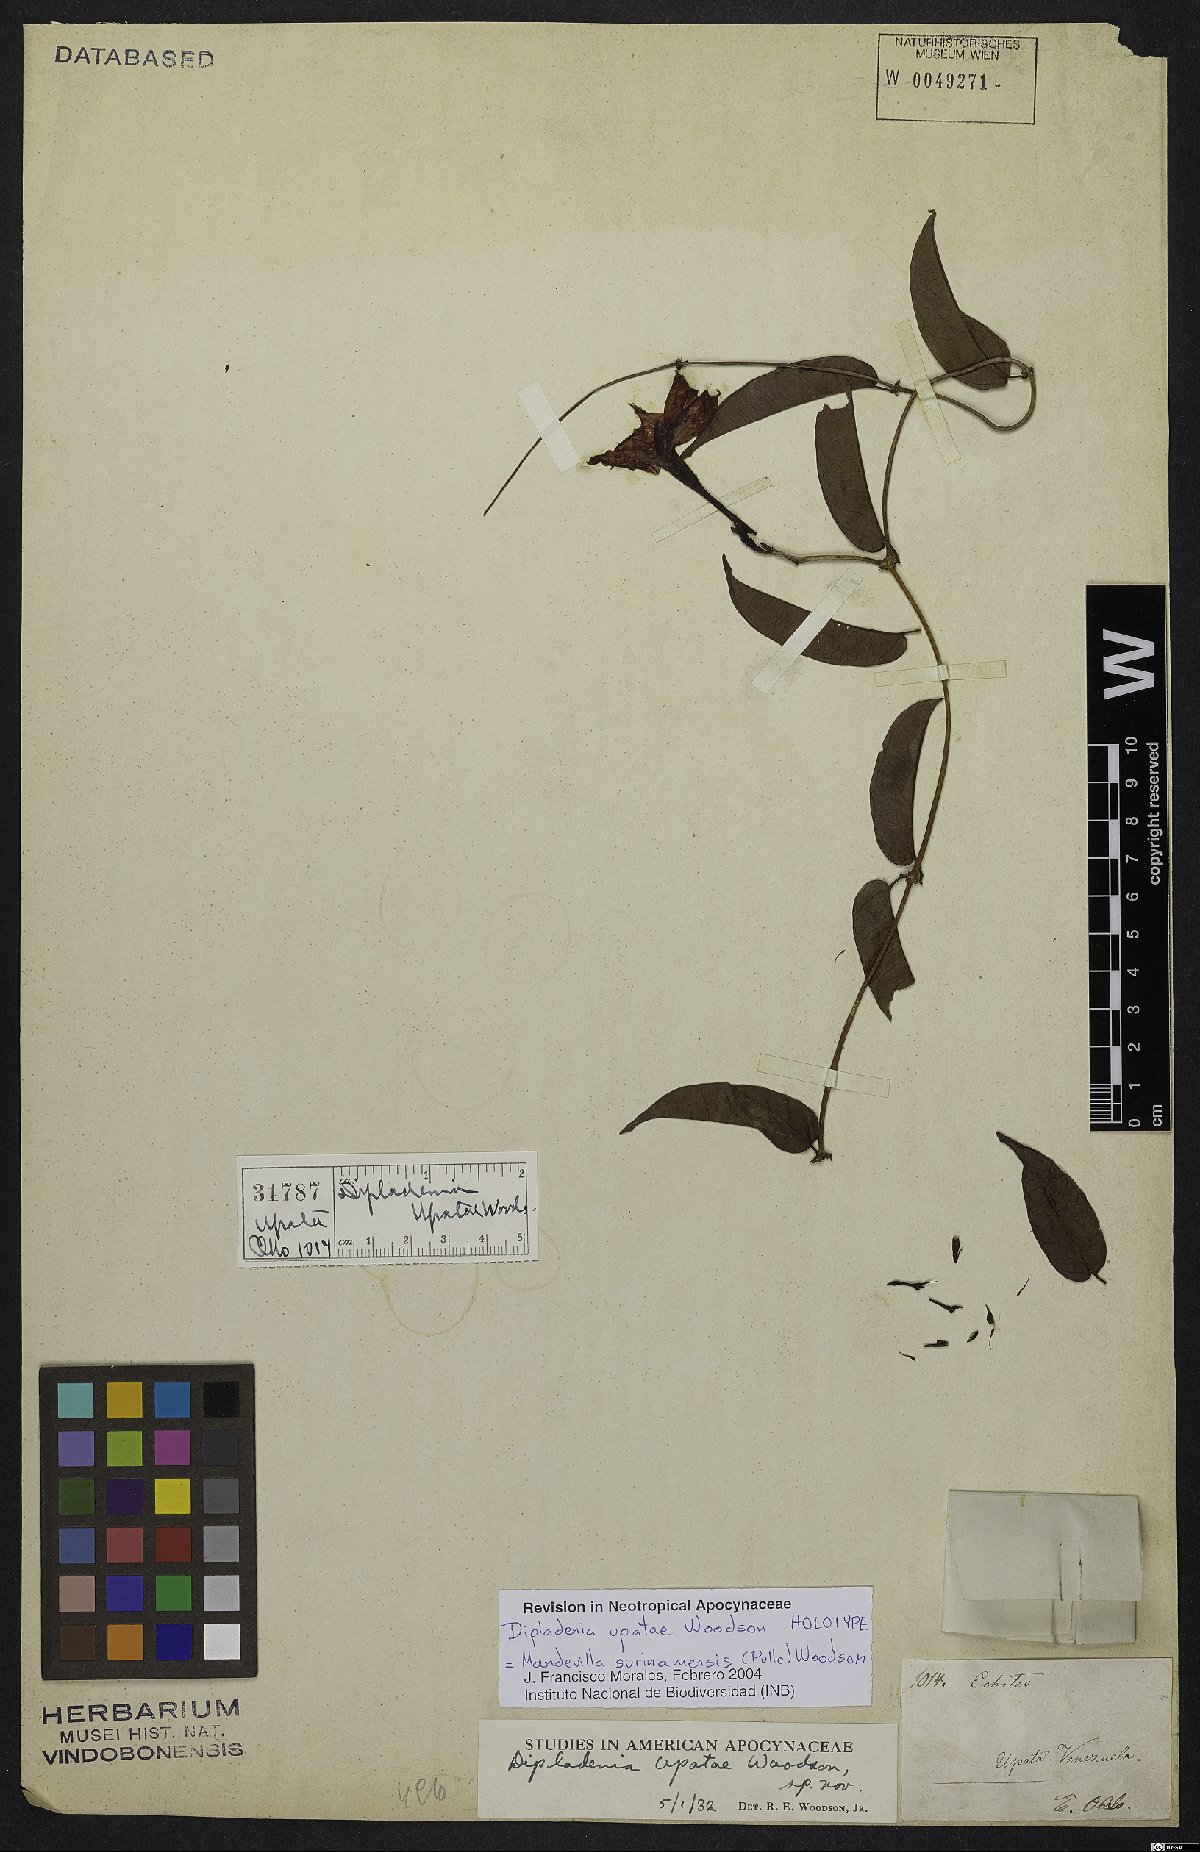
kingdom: Plantae
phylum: Tracheophyta
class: Magnoliopsida
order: Gentianales
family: Apocynaceae
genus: Mandevilla
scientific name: Mandevilla surinamensis
